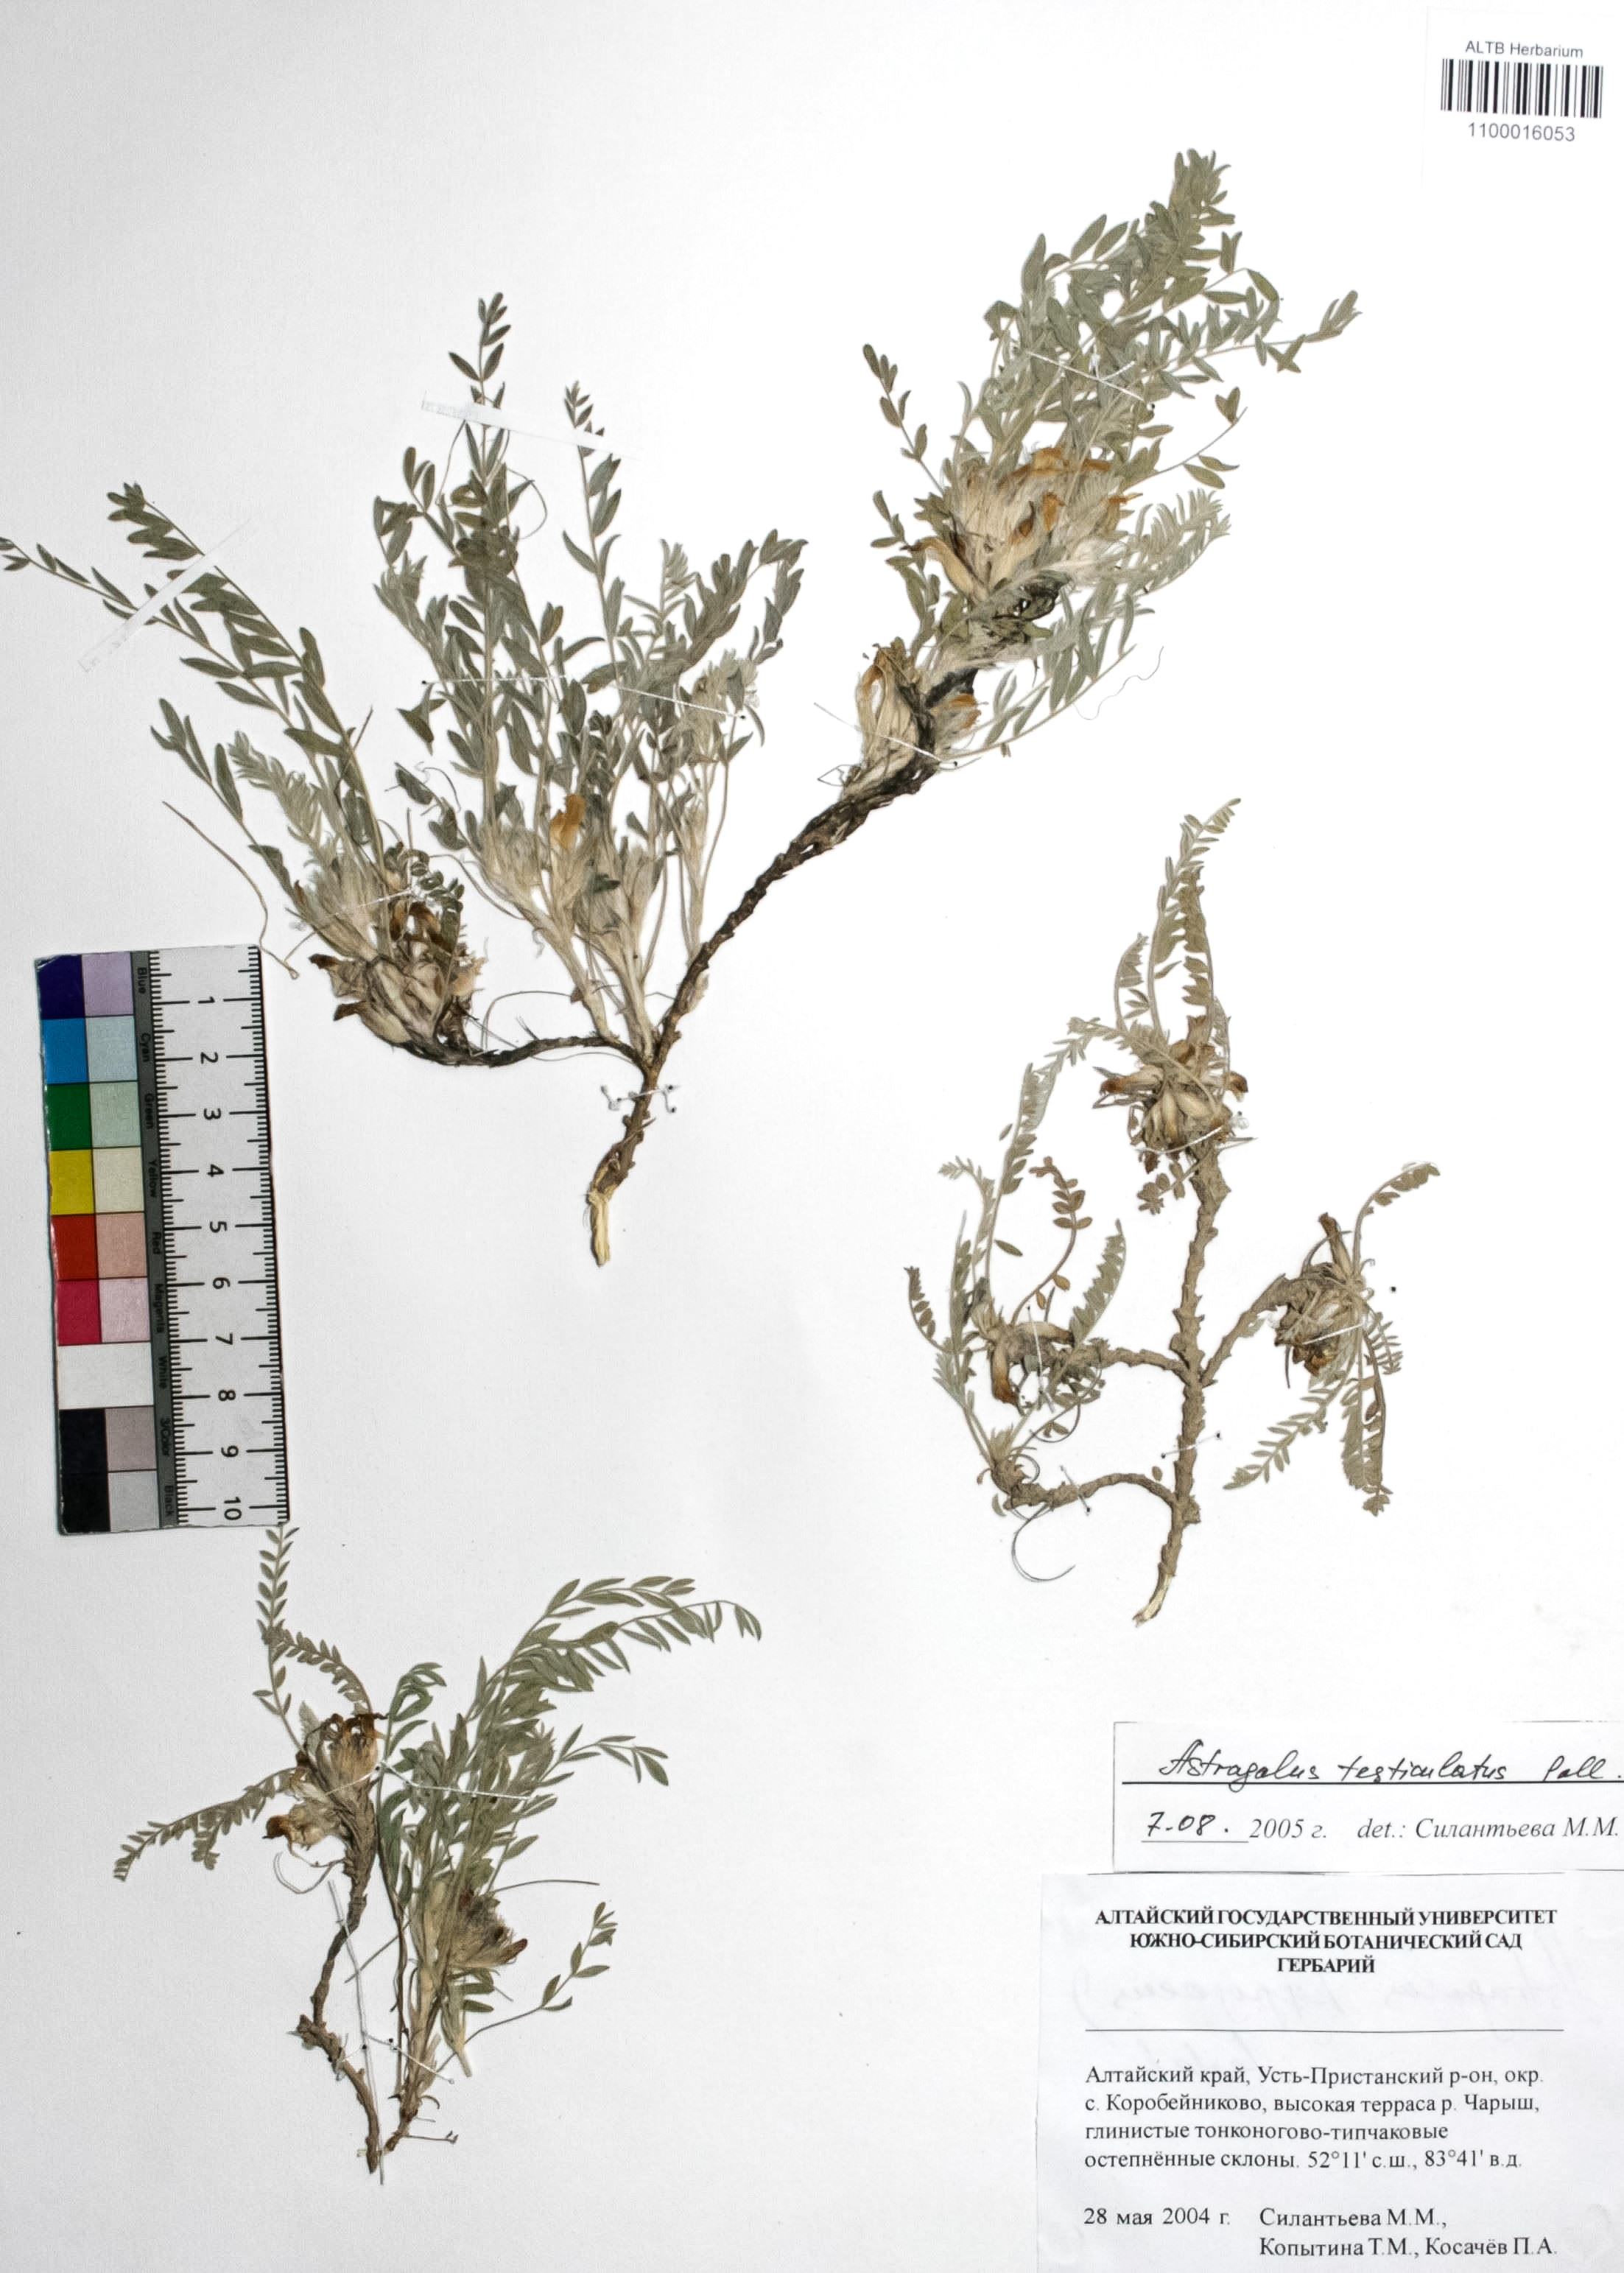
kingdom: Plantae
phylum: Tracheophyta
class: Magnoliopsida
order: Fabales
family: Fabaceae
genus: Astragalus
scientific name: Astragalus testiculatus
